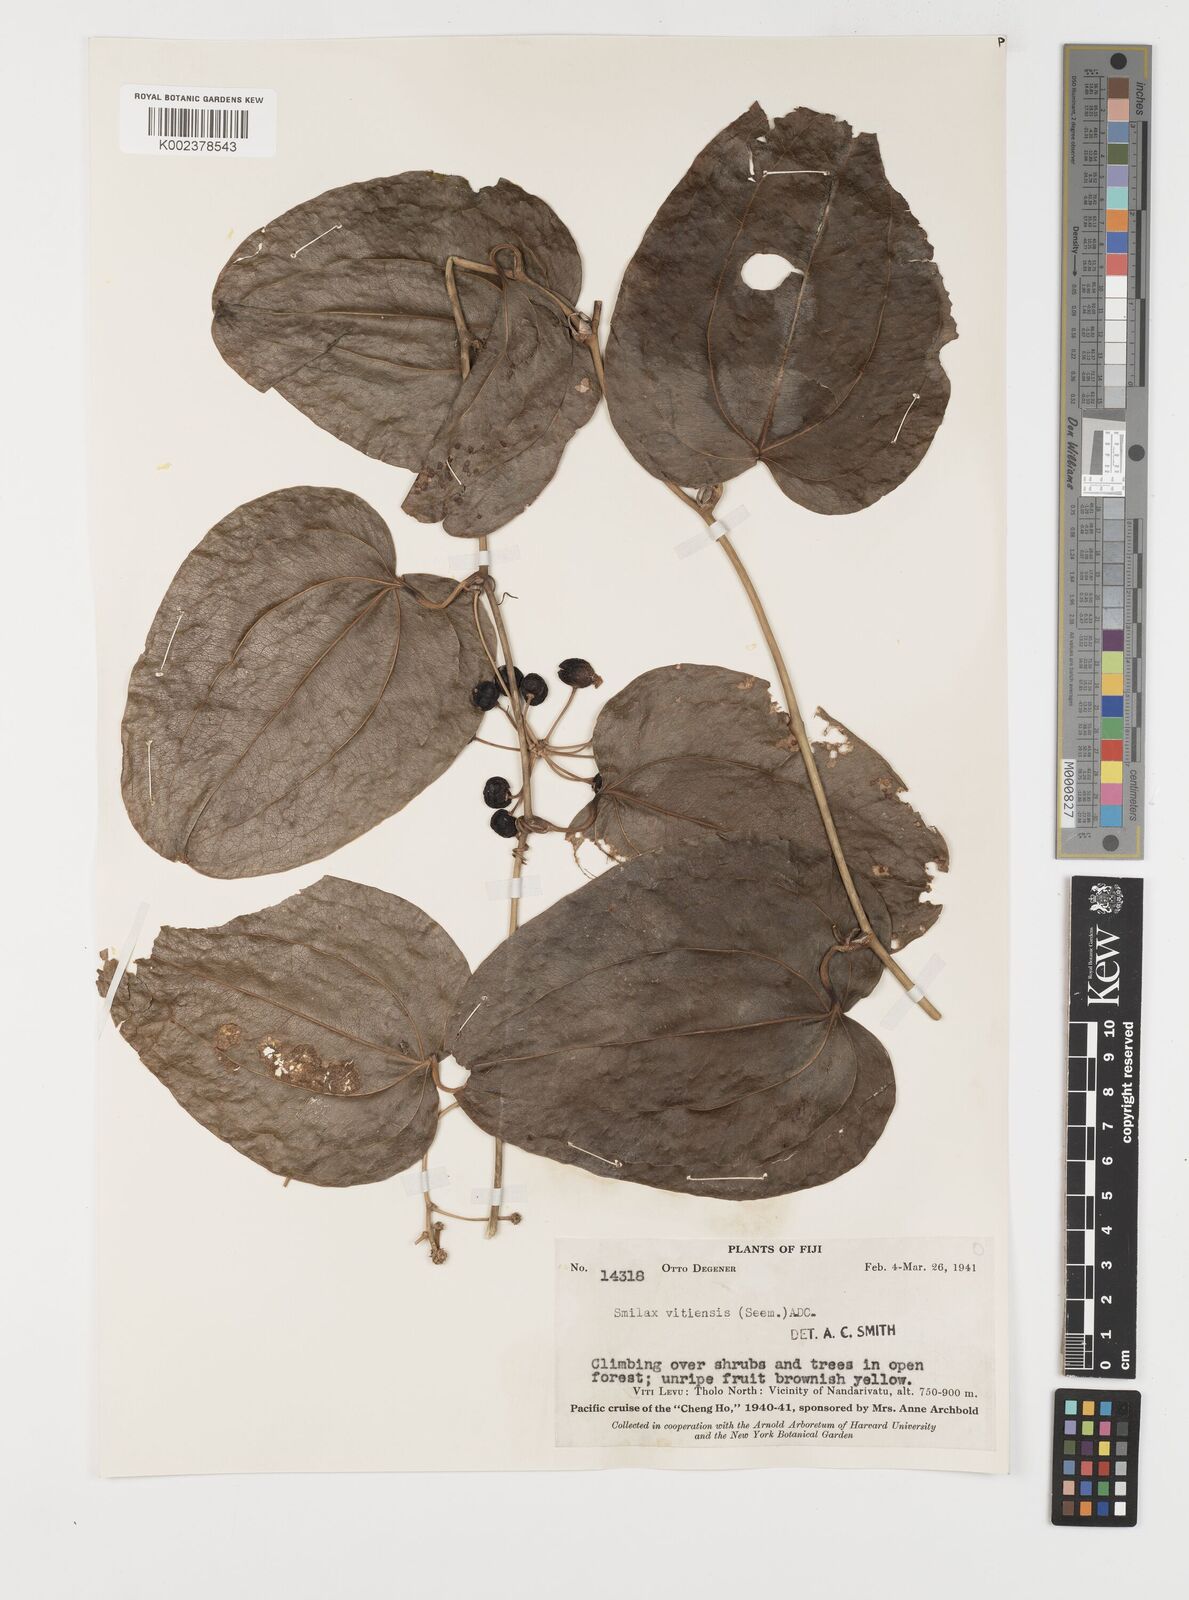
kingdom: Plantae
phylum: Tracheophyta
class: Liliopsida
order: Liliales
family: Smilacaceae
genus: Smilax
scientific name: Smilax vitiensis
